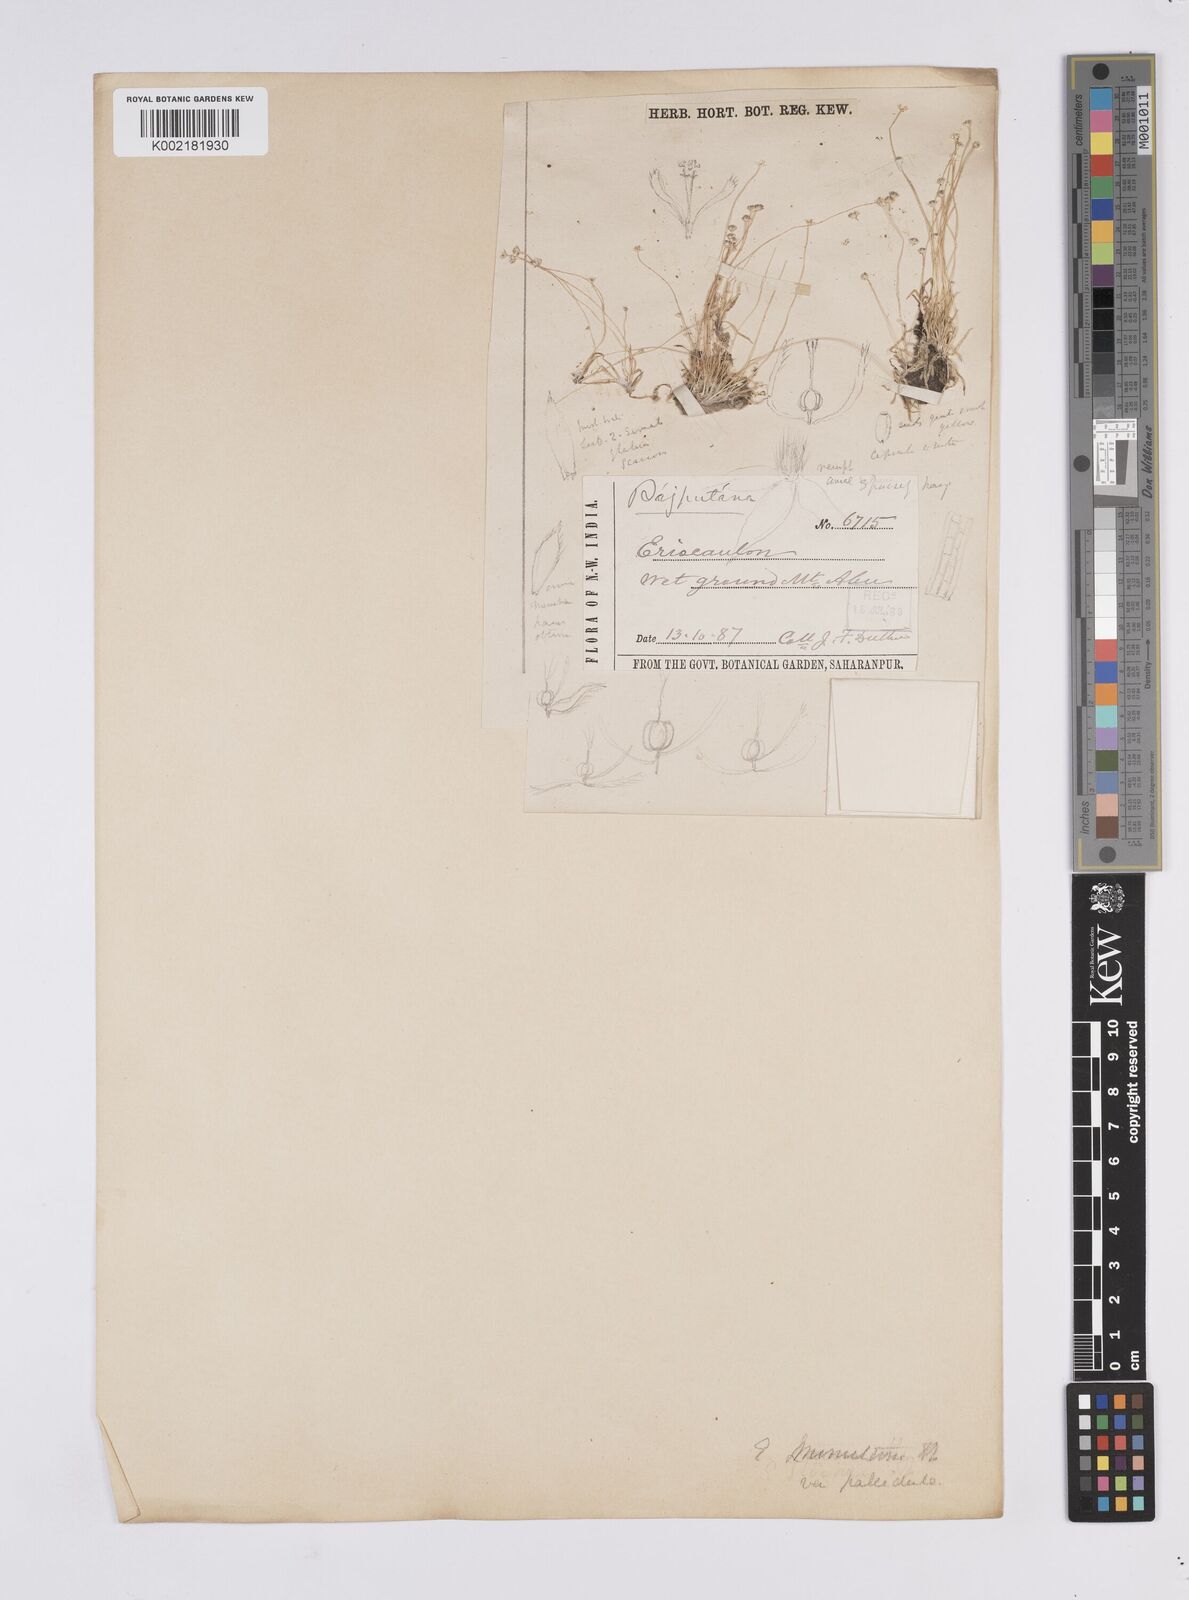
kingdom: Plantae
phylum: Tracheophyta
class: Liliopsida
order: Poales
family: Eriocaulaceae
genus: Eriocaulon
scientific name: Eriocaulon minutum
